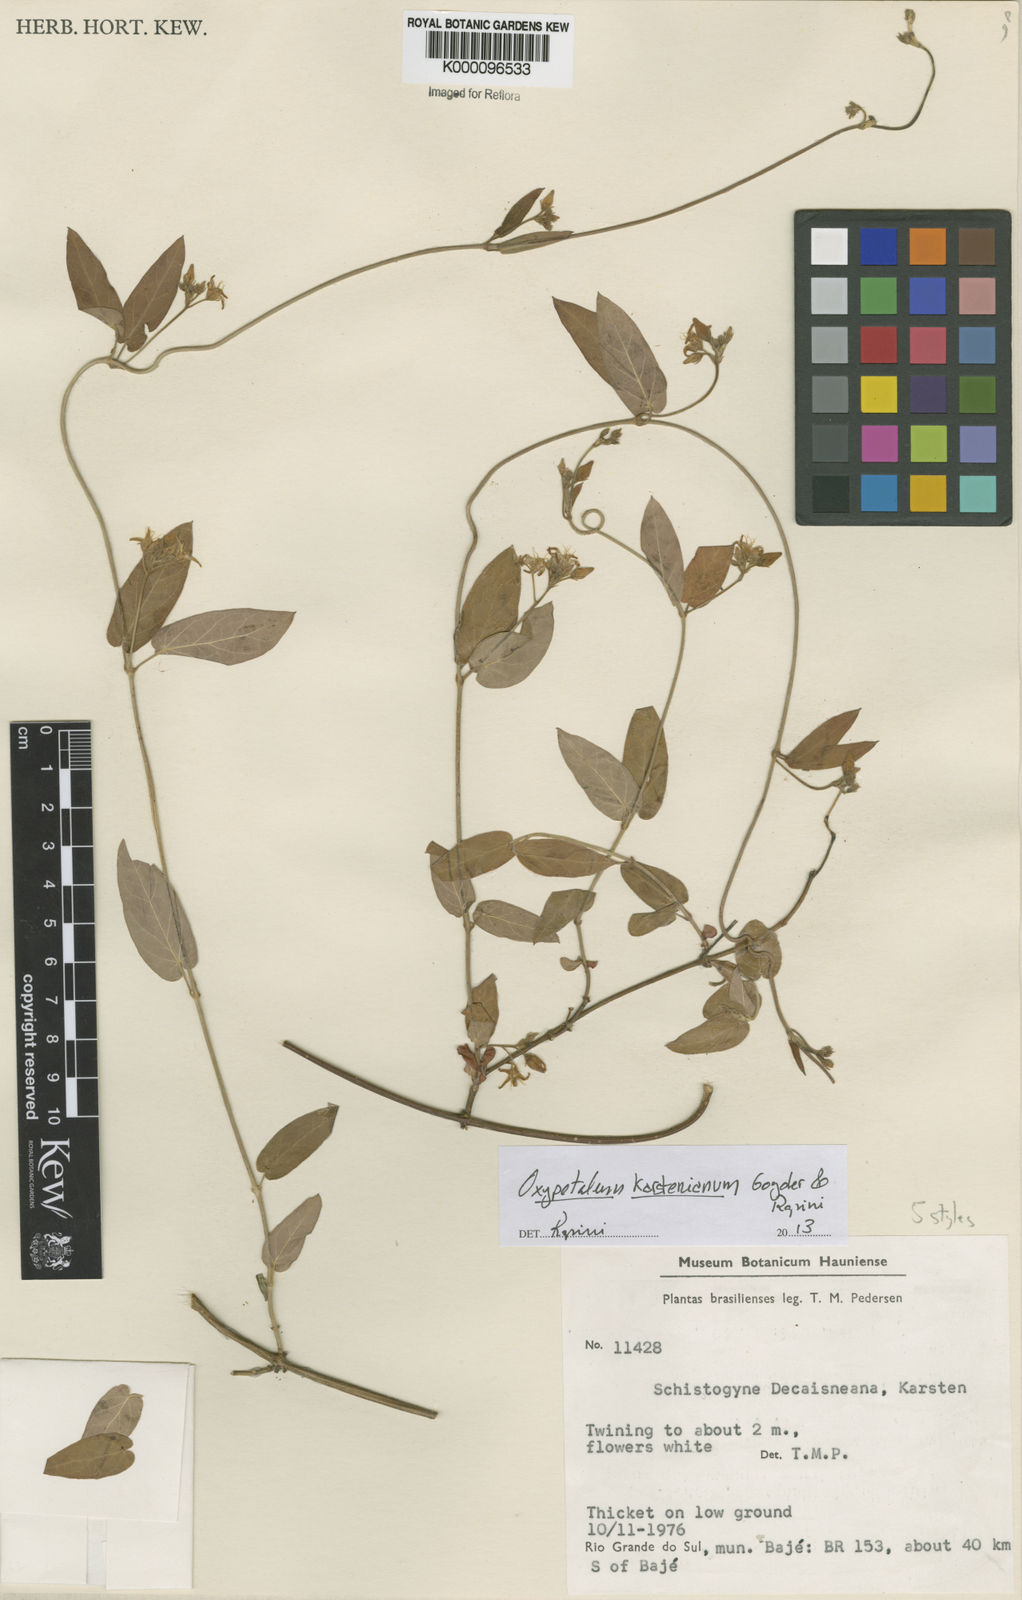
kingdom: Plantae
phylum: Tracheophyta
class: Magnoliopsida
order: Gentianales
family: Apocynaceae
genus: Oxypetalum
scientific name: Oxypetalum insigne
